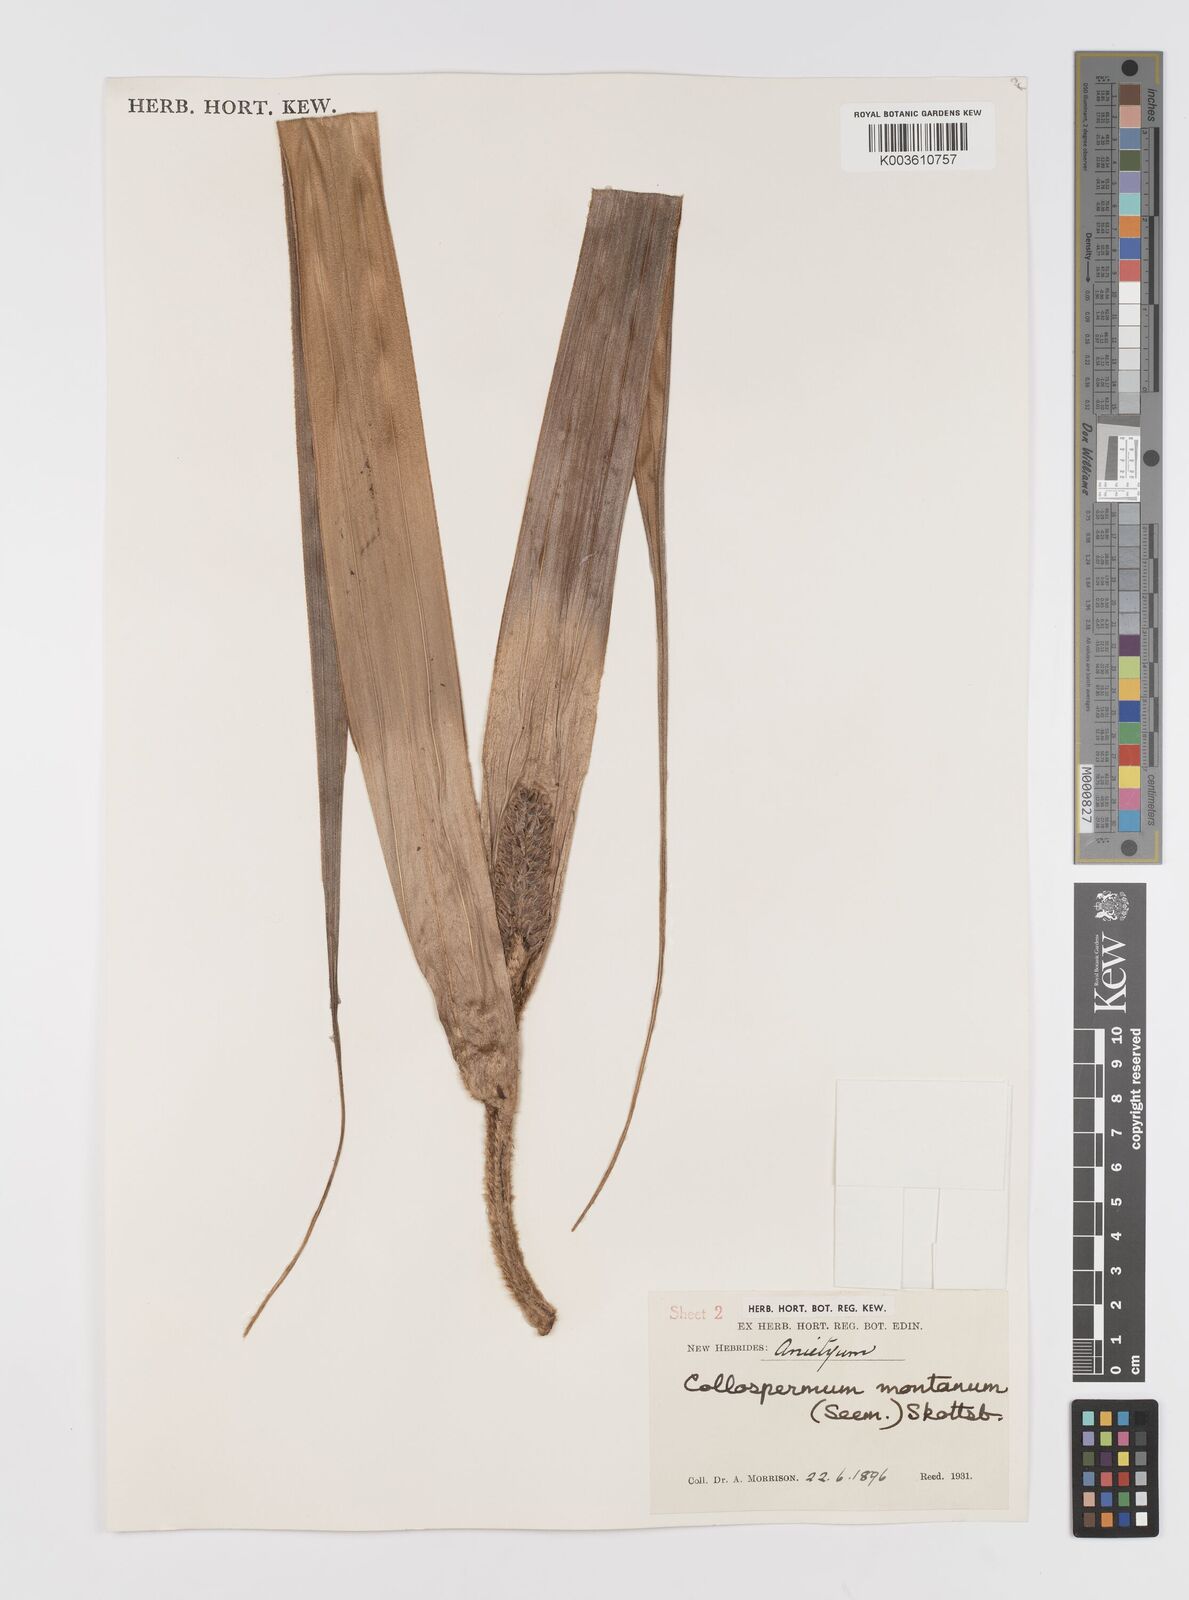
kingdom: Plantae
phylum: Tracheophyta
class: Liliopsida
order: Asparagales
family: Asteliaceae
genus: Astelia
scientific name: Astelia montana
